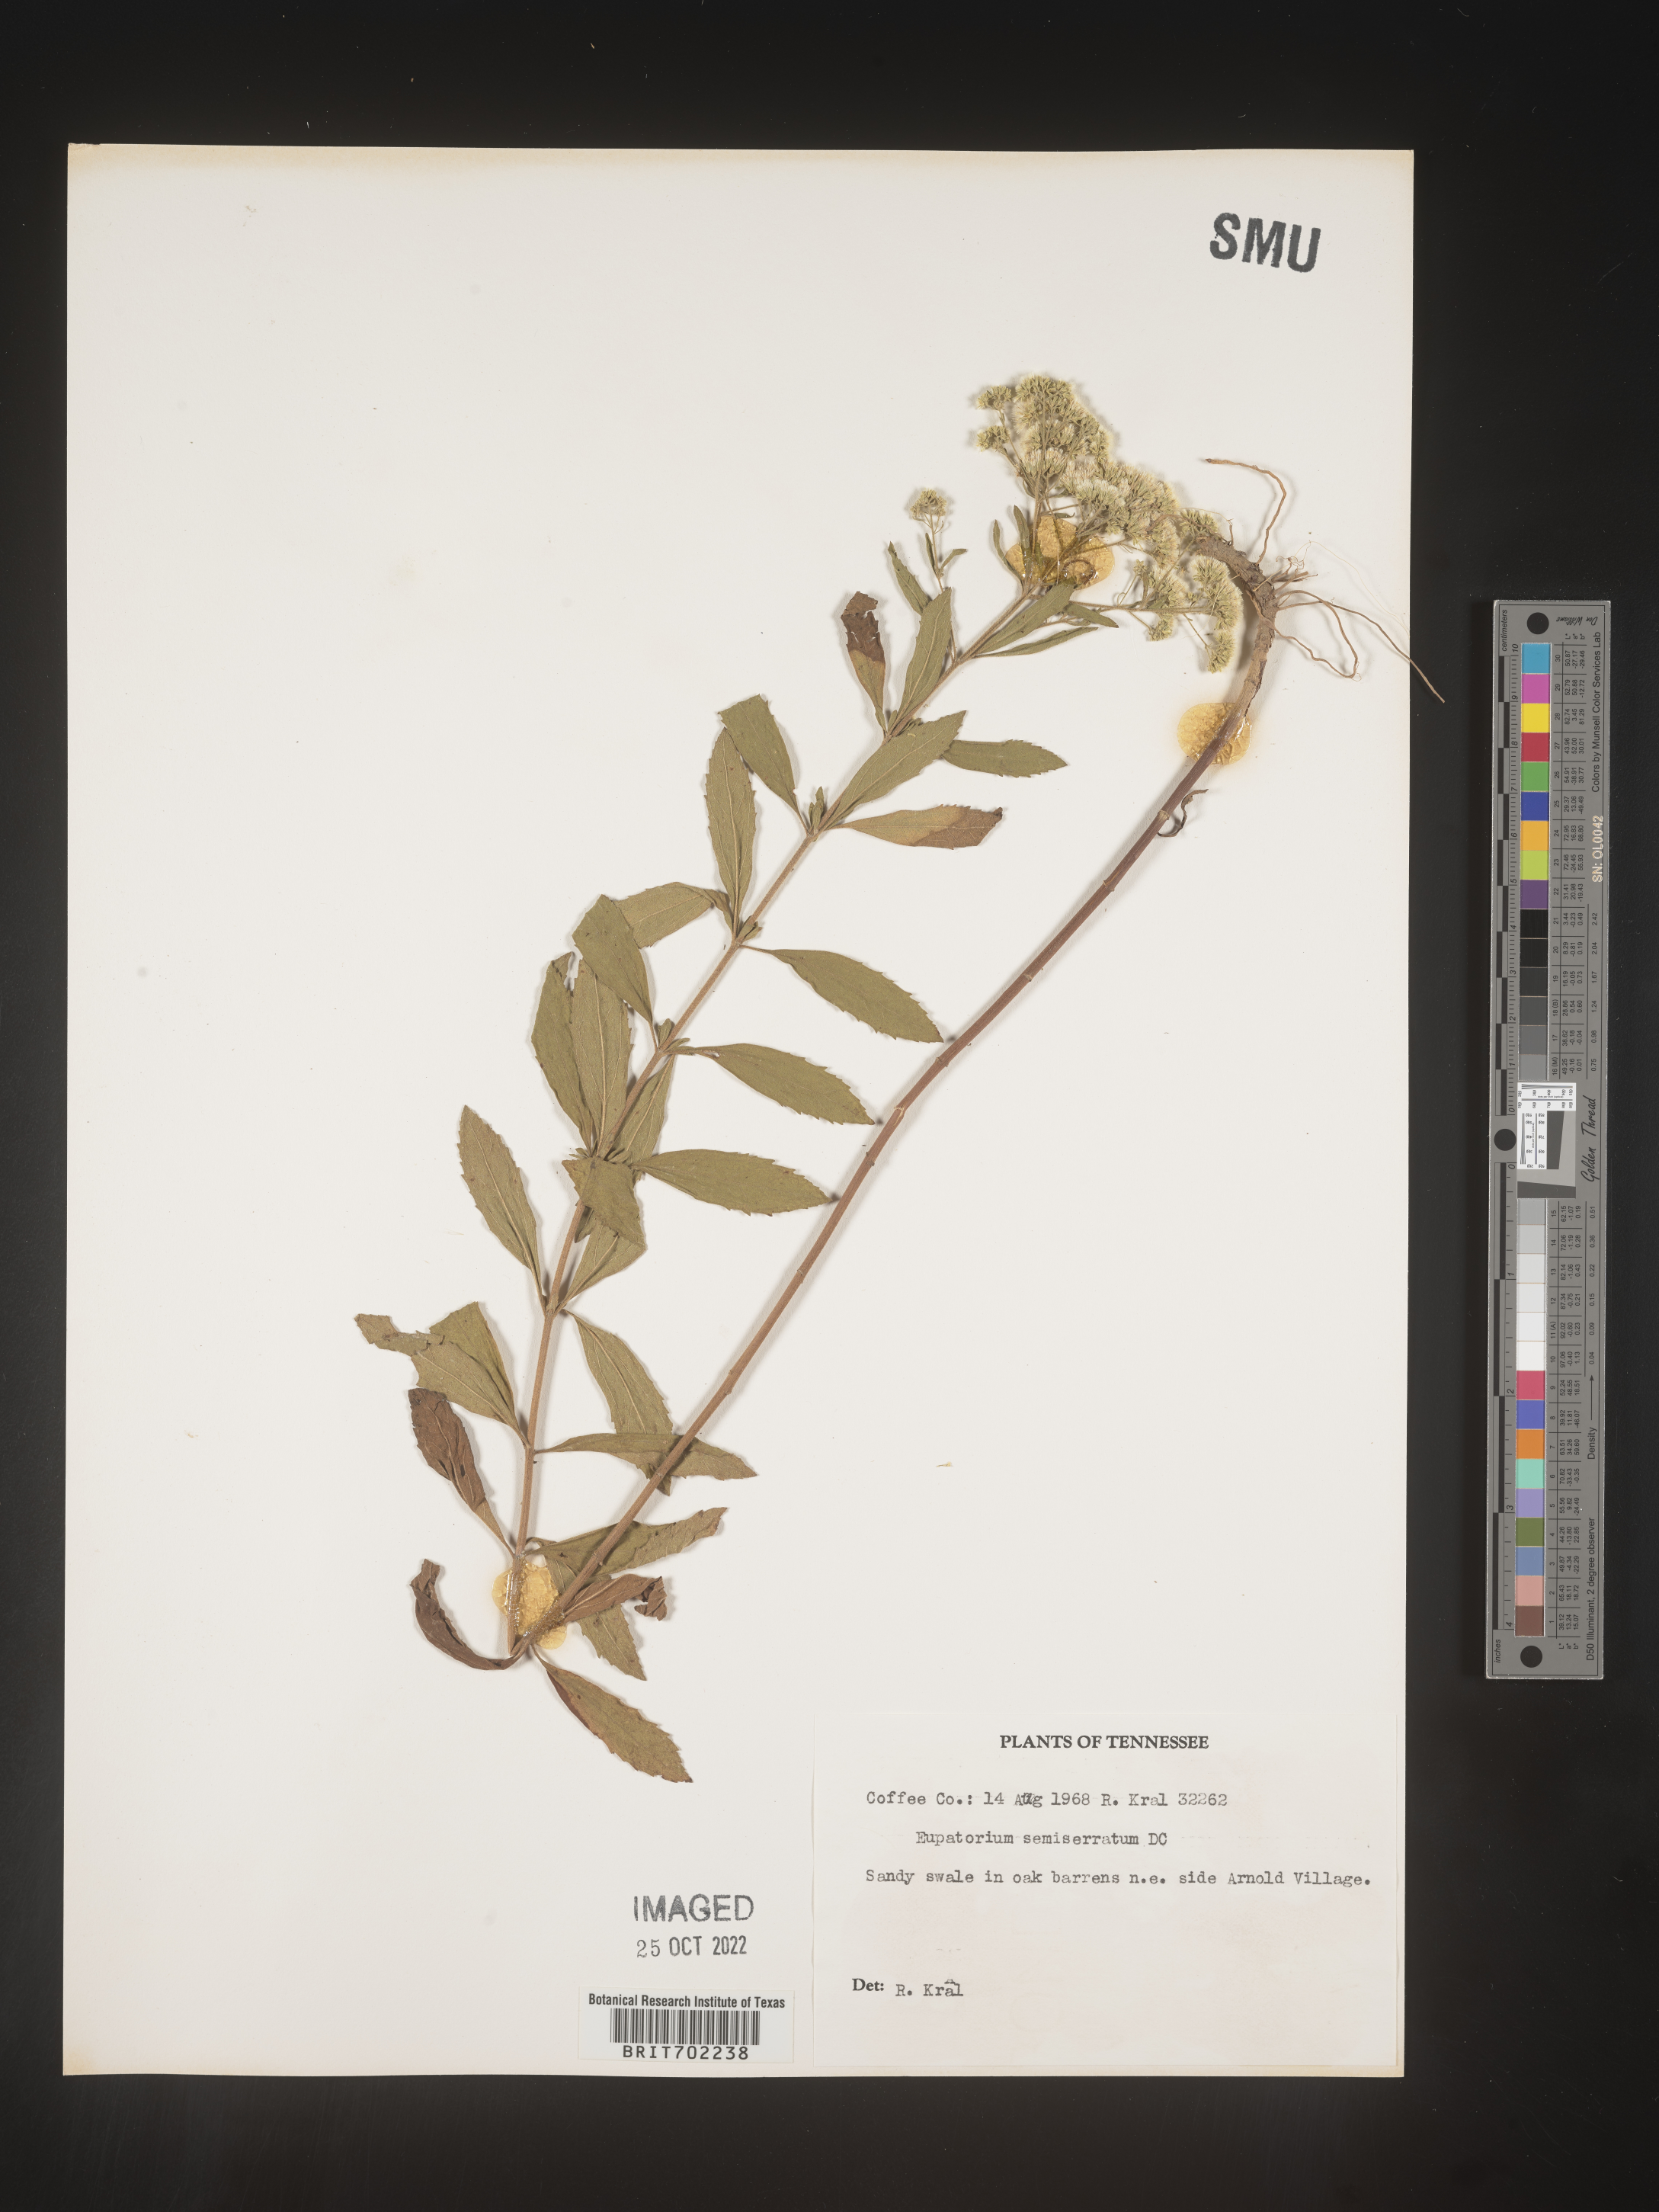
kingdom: Plantae
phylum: Tracheophyta
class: Magnoliopsida
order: Asterales
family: Asteraceae
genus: Eupatorium
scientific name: Eupatorium semiserratum
